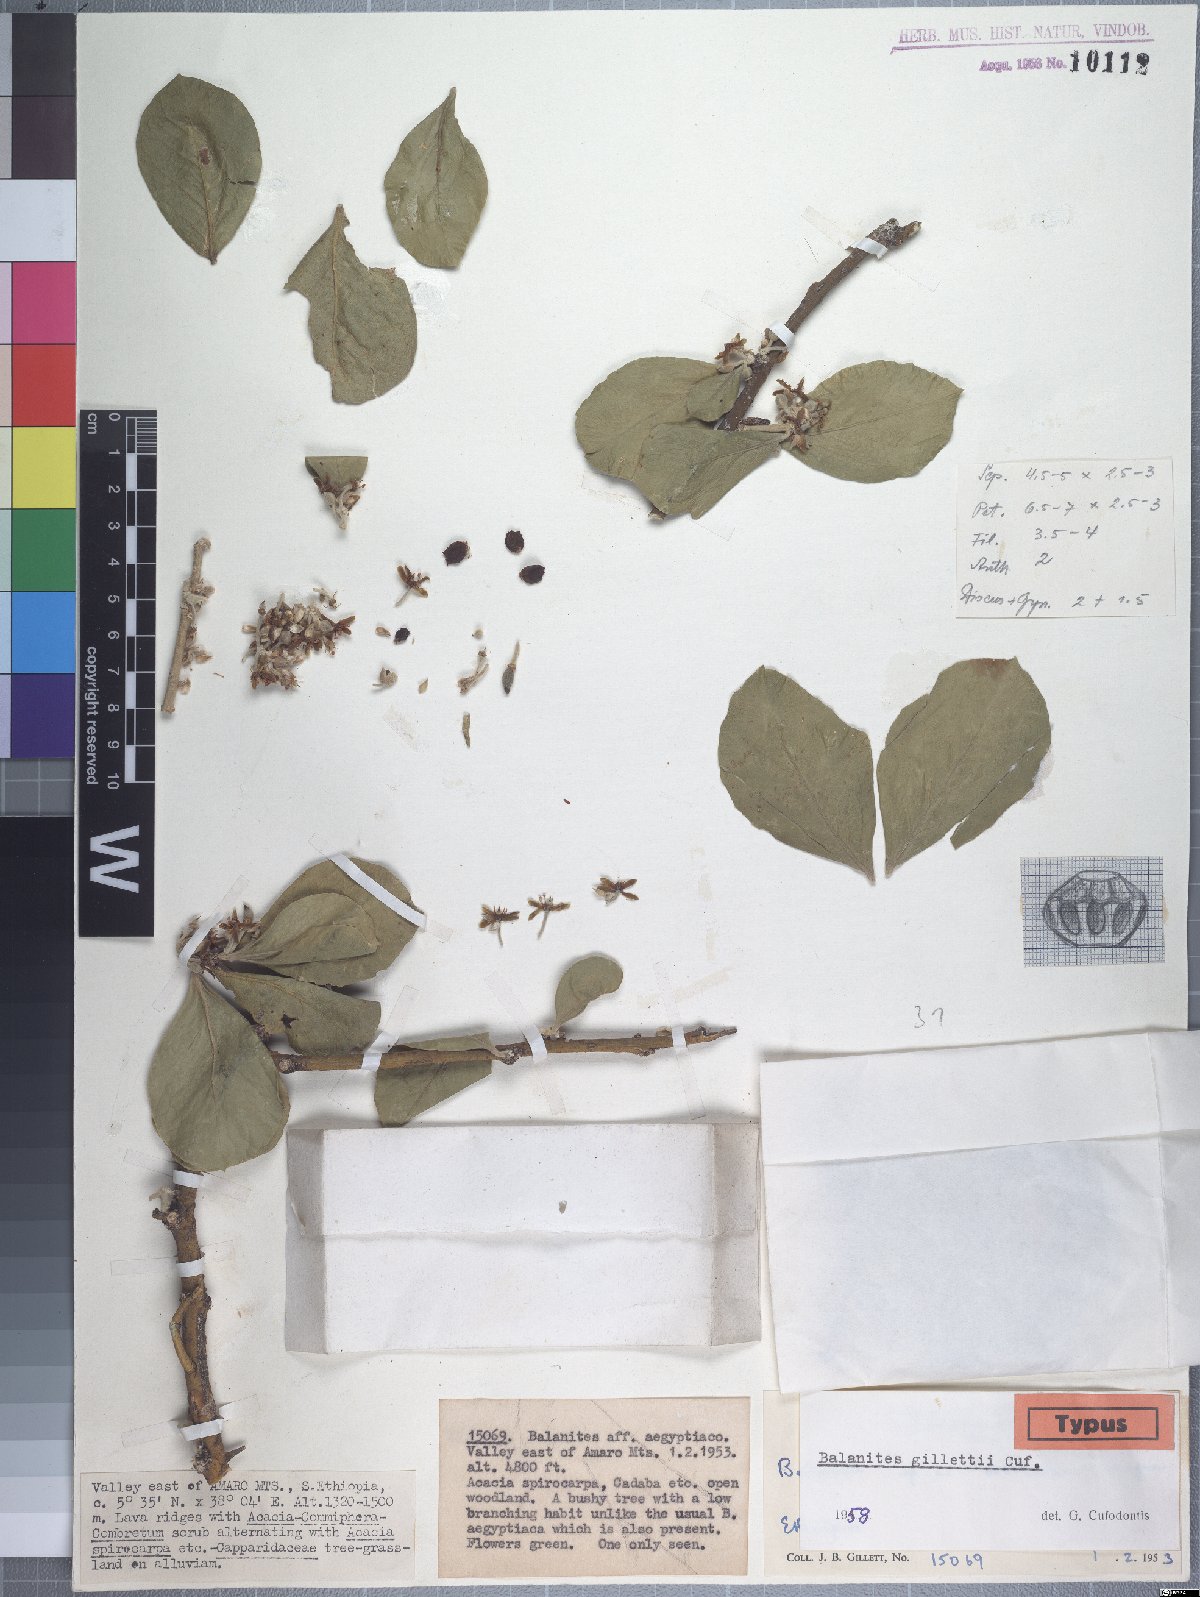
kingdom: Plantae
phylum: Tracheophyta
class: Magnoliopsida
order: Zygophyllales
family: Zygophyllaceae
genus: Balanites
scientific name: Balanites rotundifolia
